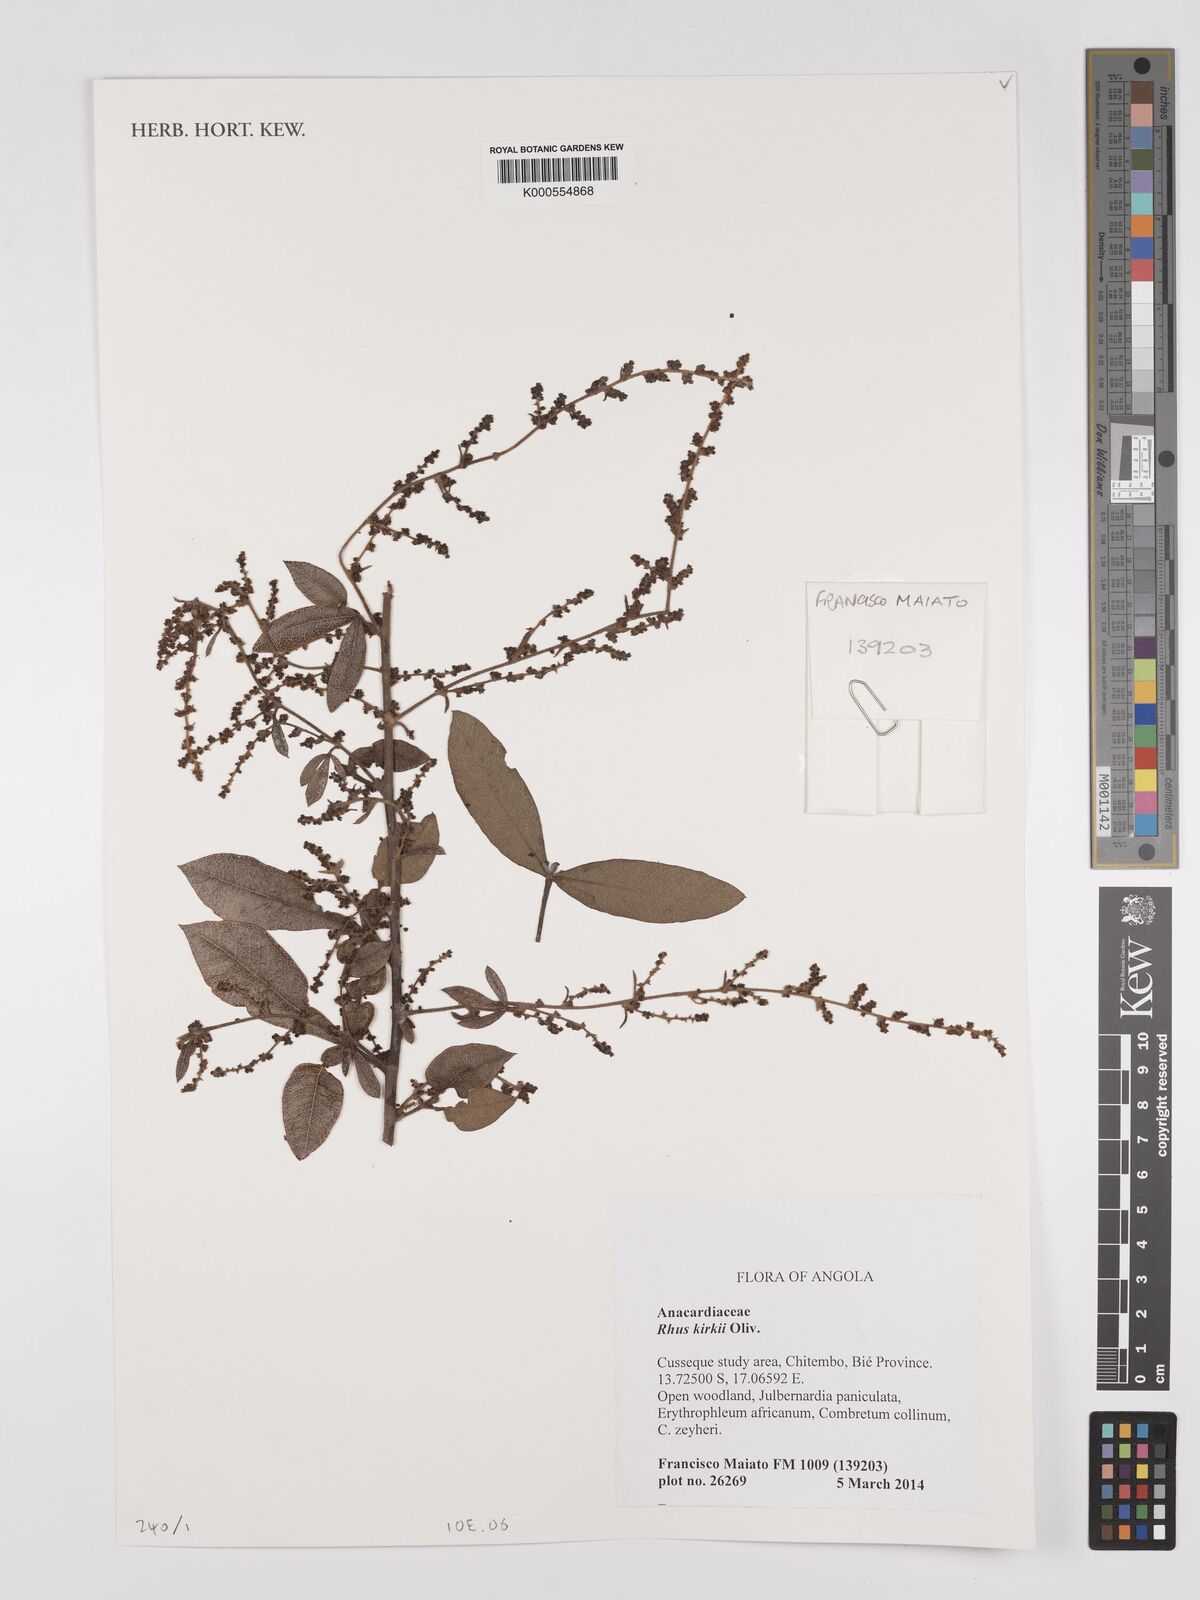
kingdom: Plantae
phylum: Tracheophyta
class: Magnoliopsida
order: Sapindales
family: Anacardiaceae
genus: Searsia
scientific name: Searsia kirkii
